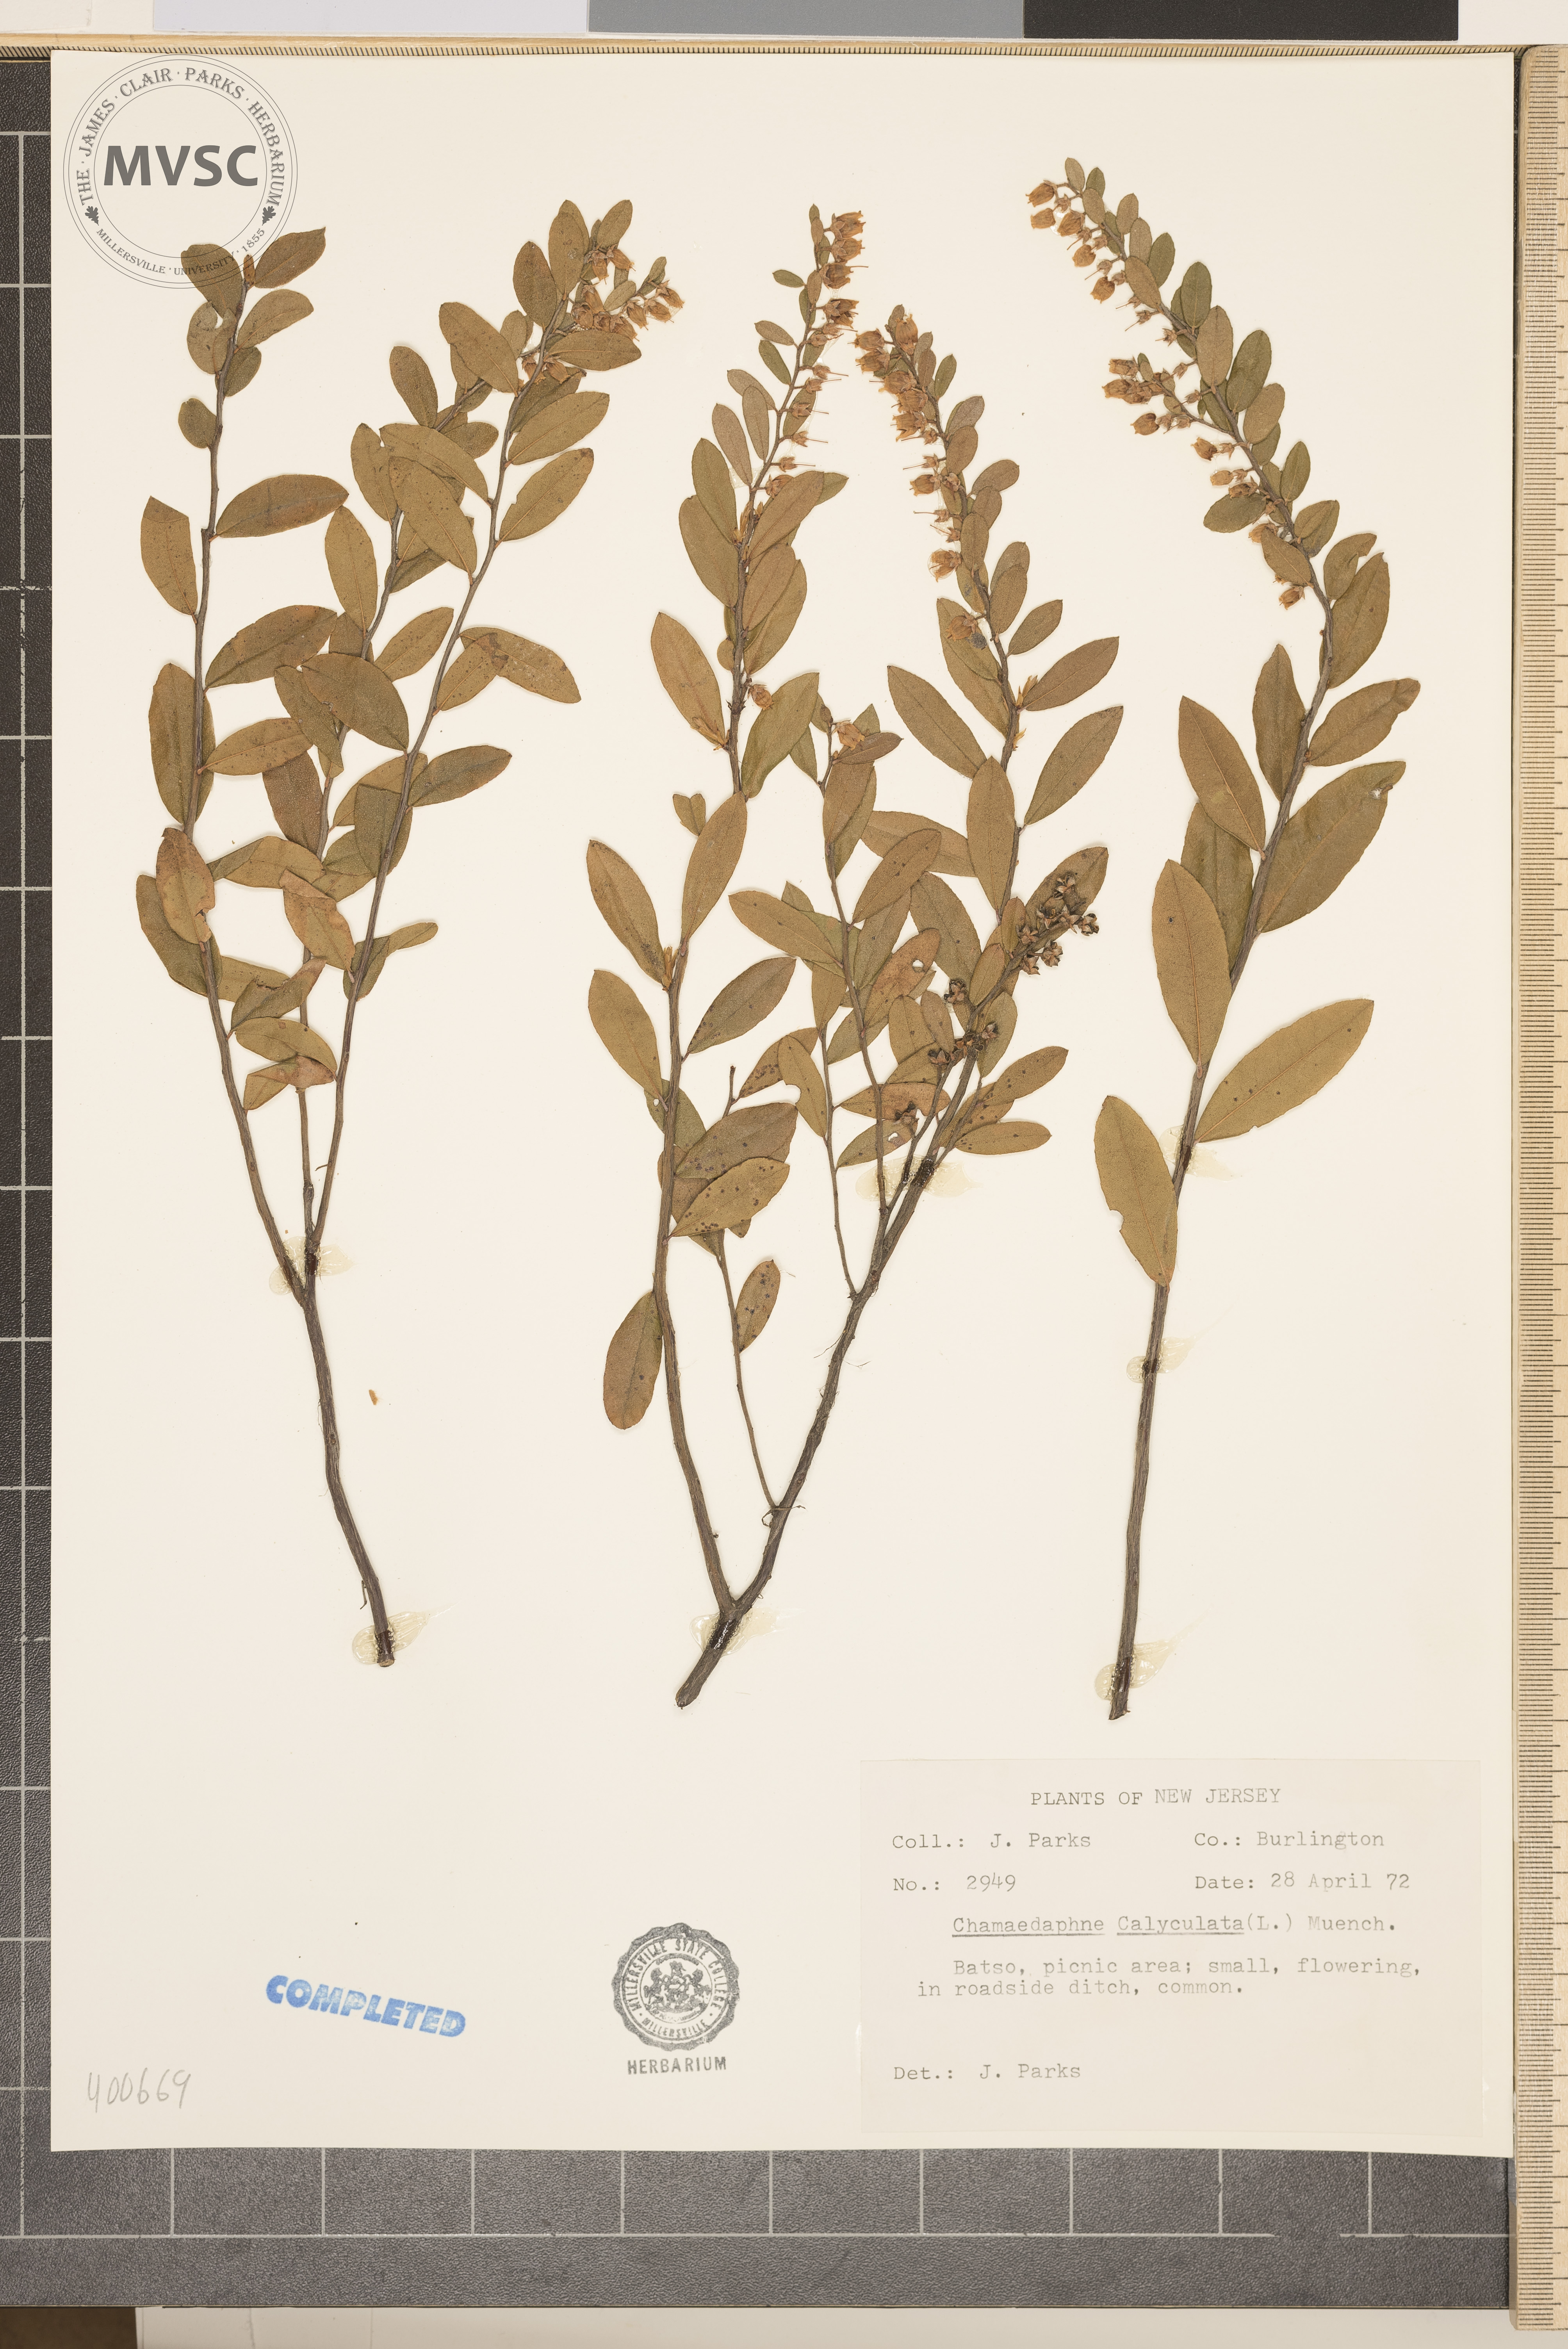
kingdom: Plantae
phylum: Tracheophyta
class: Magnoliopsida
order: Ericales
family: Ericaceae
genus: Chamaedaphne
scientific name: Chamaedaphne calyculata
